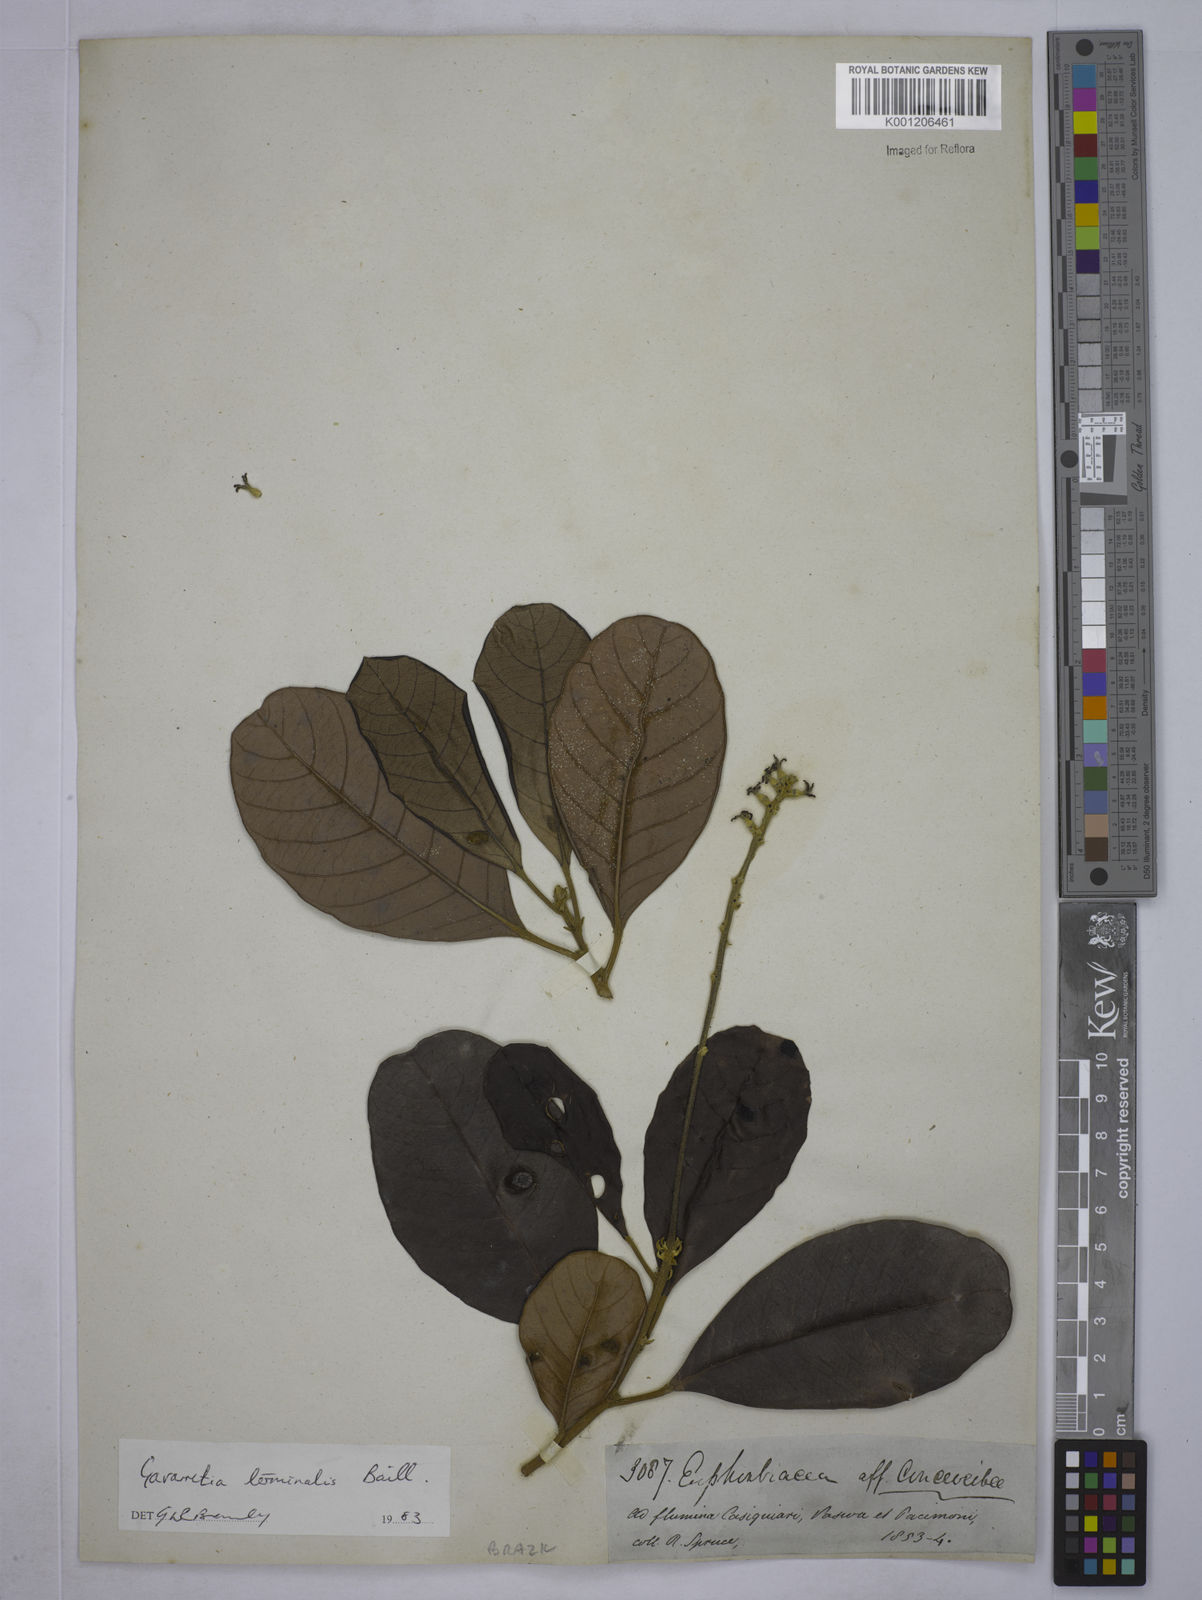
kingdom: Plantae
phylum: Tracheophyta
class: Magnoliopsida
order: Malpighiales
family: Euphorbiaceae
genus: Conceveiba
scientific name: Conceveiba
